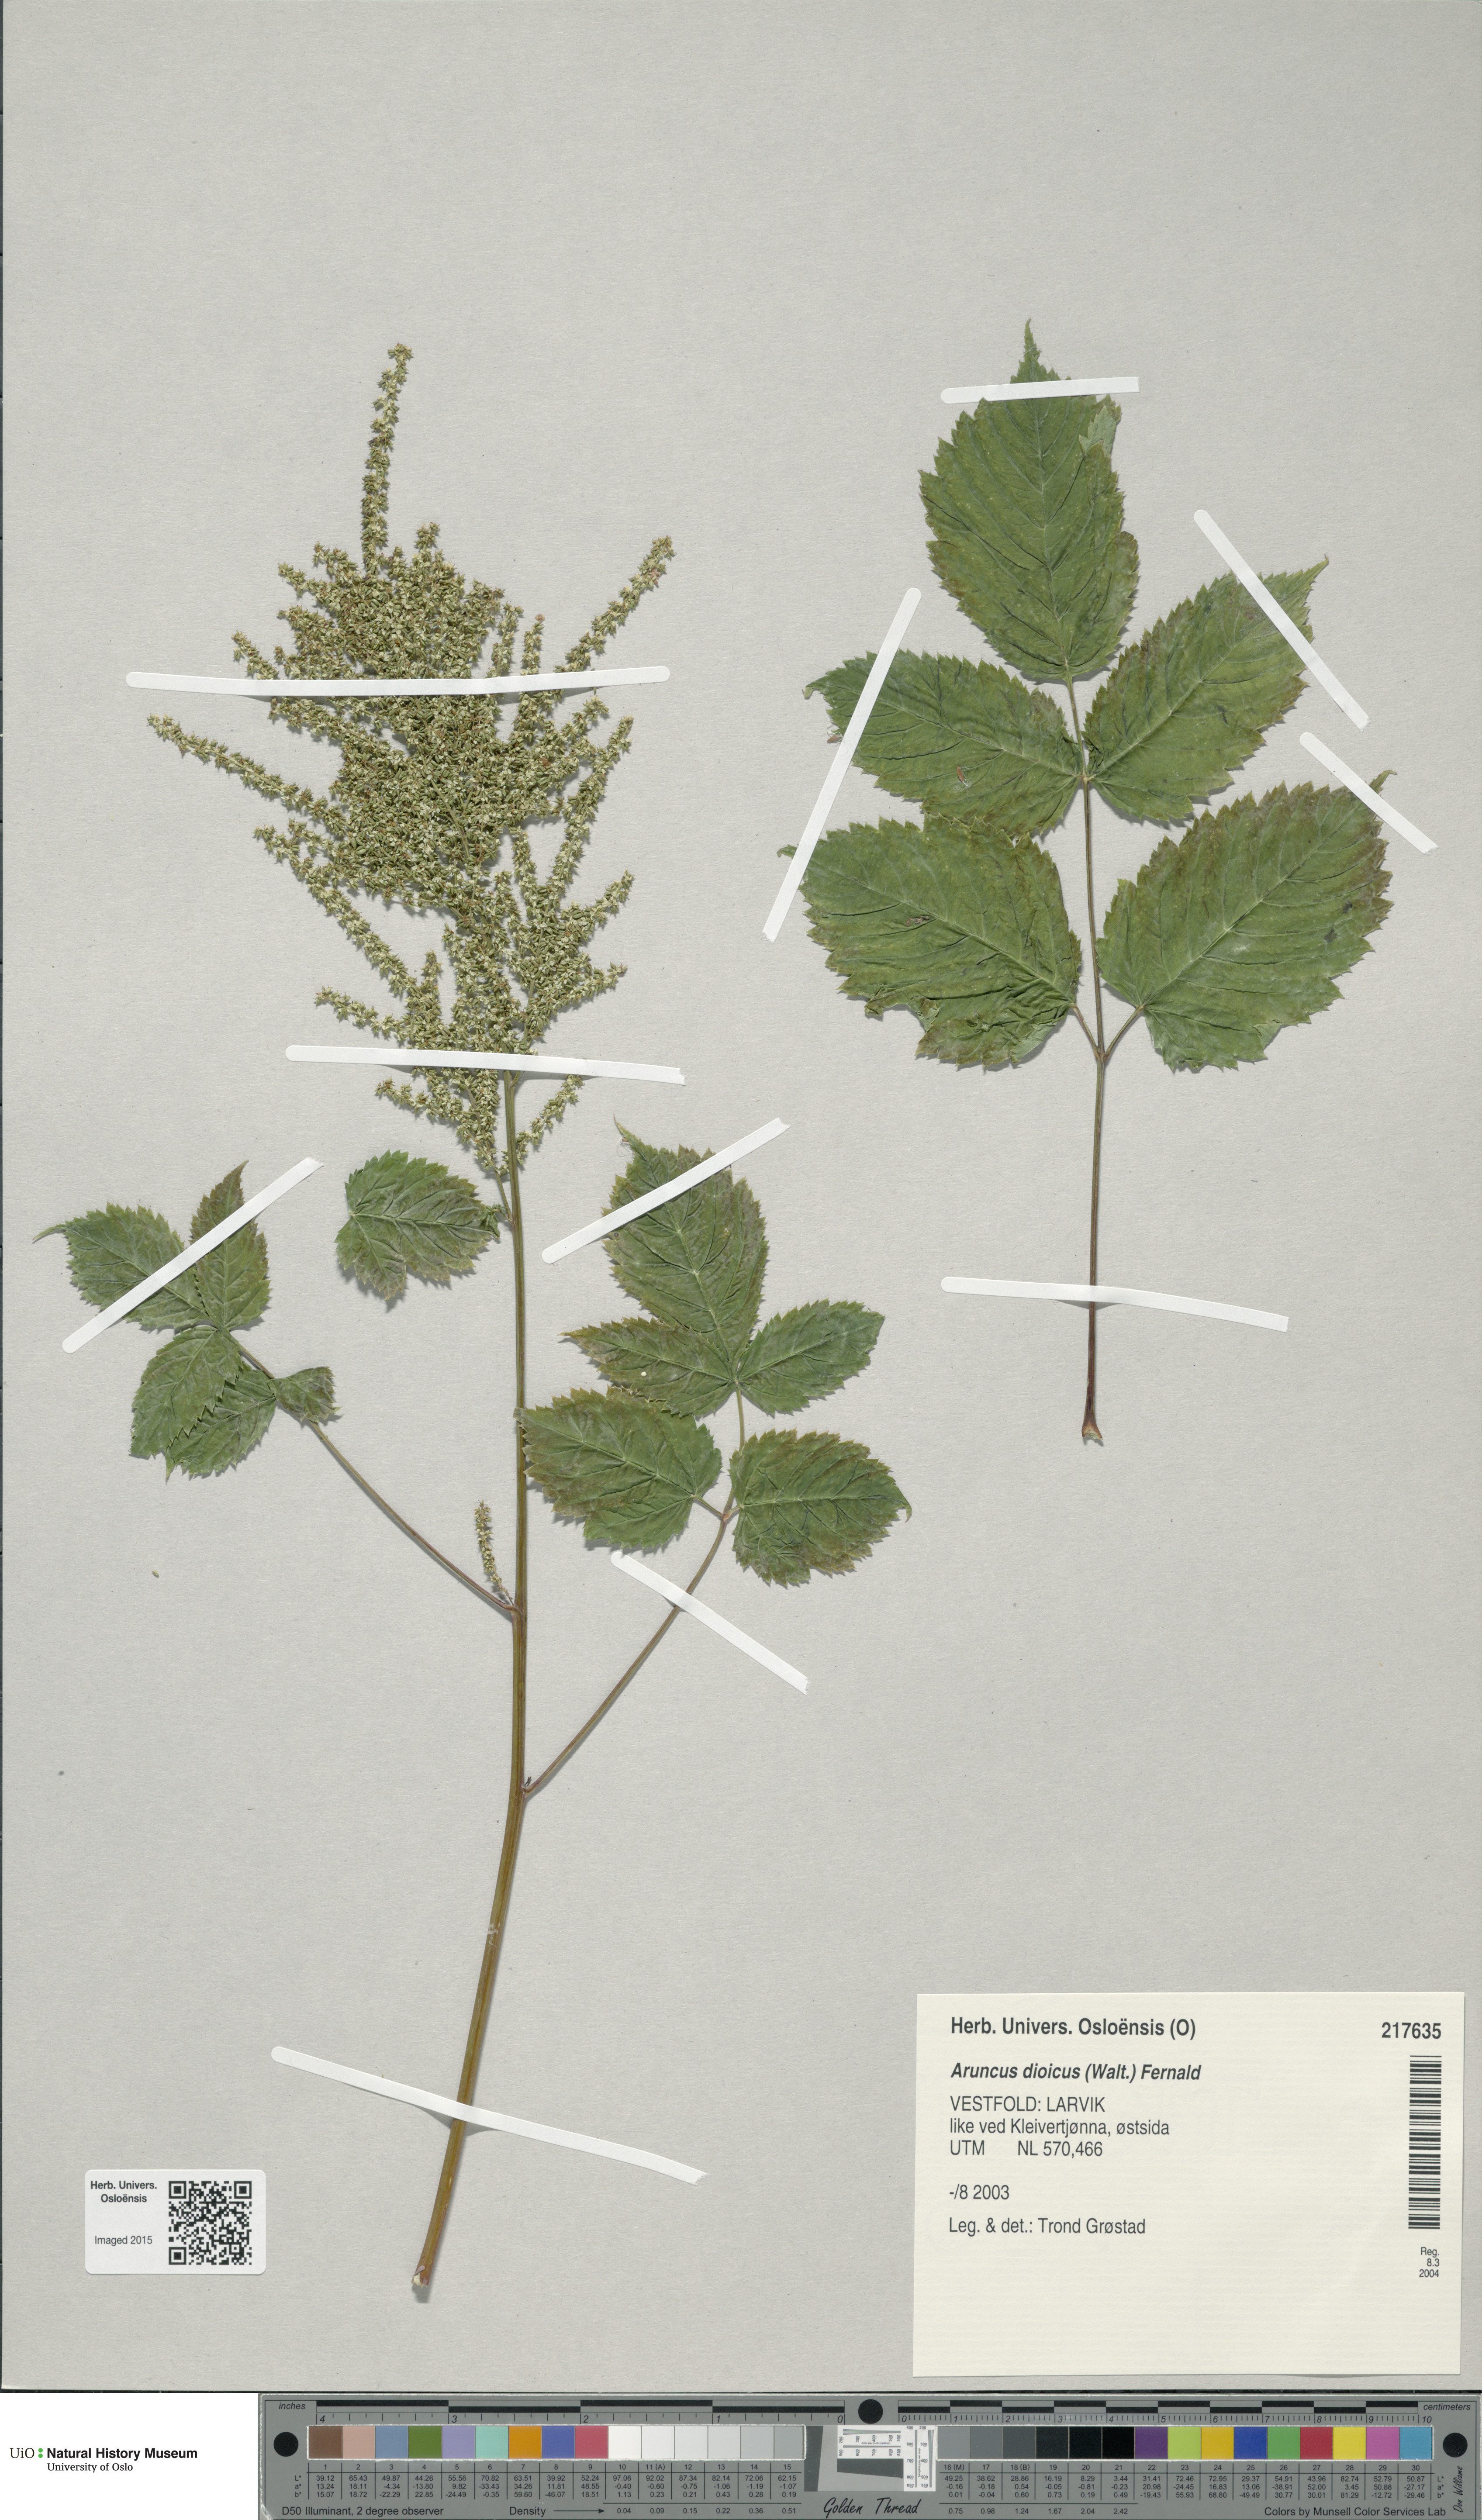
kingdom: Plantae
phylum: Tracheophyta
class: Magnoliopsida
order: Rosales
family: Rosaceae
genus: Aruncus
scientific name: Aruncus dioicus
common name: Buck's-beard
